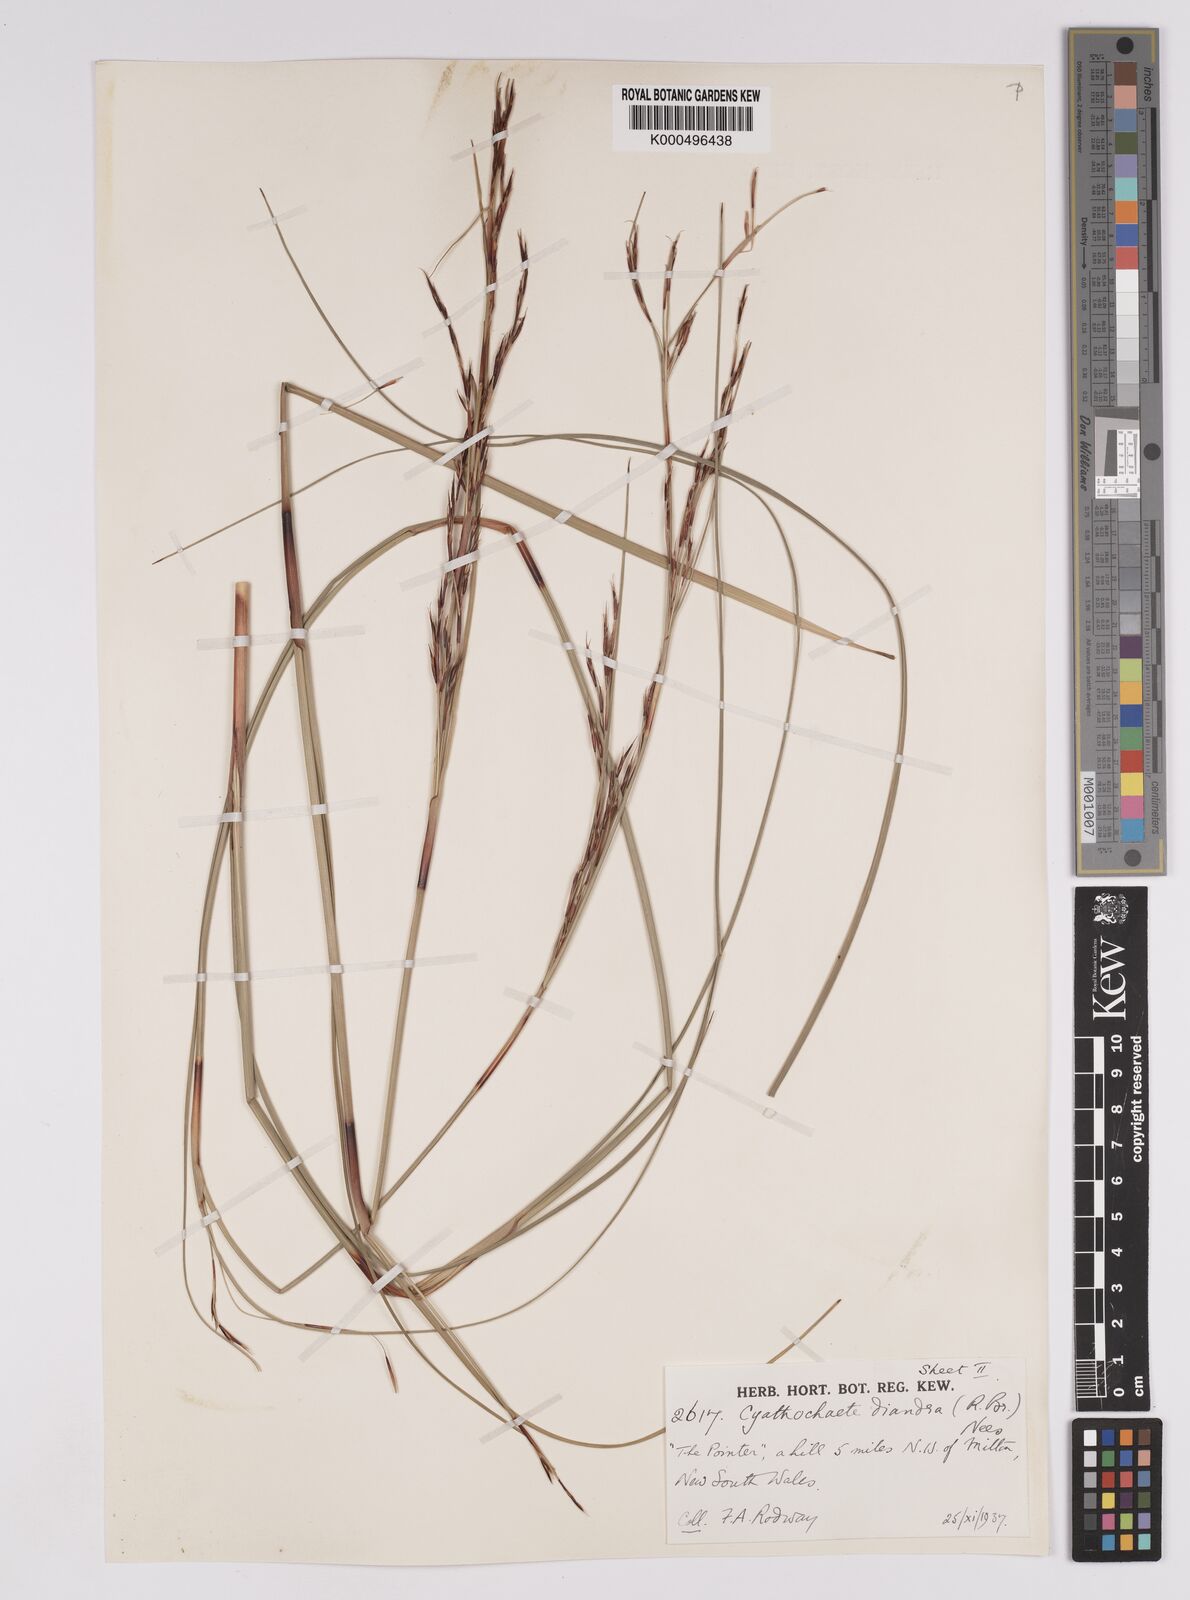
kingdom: Plantae
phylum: Tracheophyta
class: Liliopsida
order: Poales
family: Cyperaceae
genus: Cyathochaeta
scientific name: Cyathochaeta diandra
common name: Sheath rush
